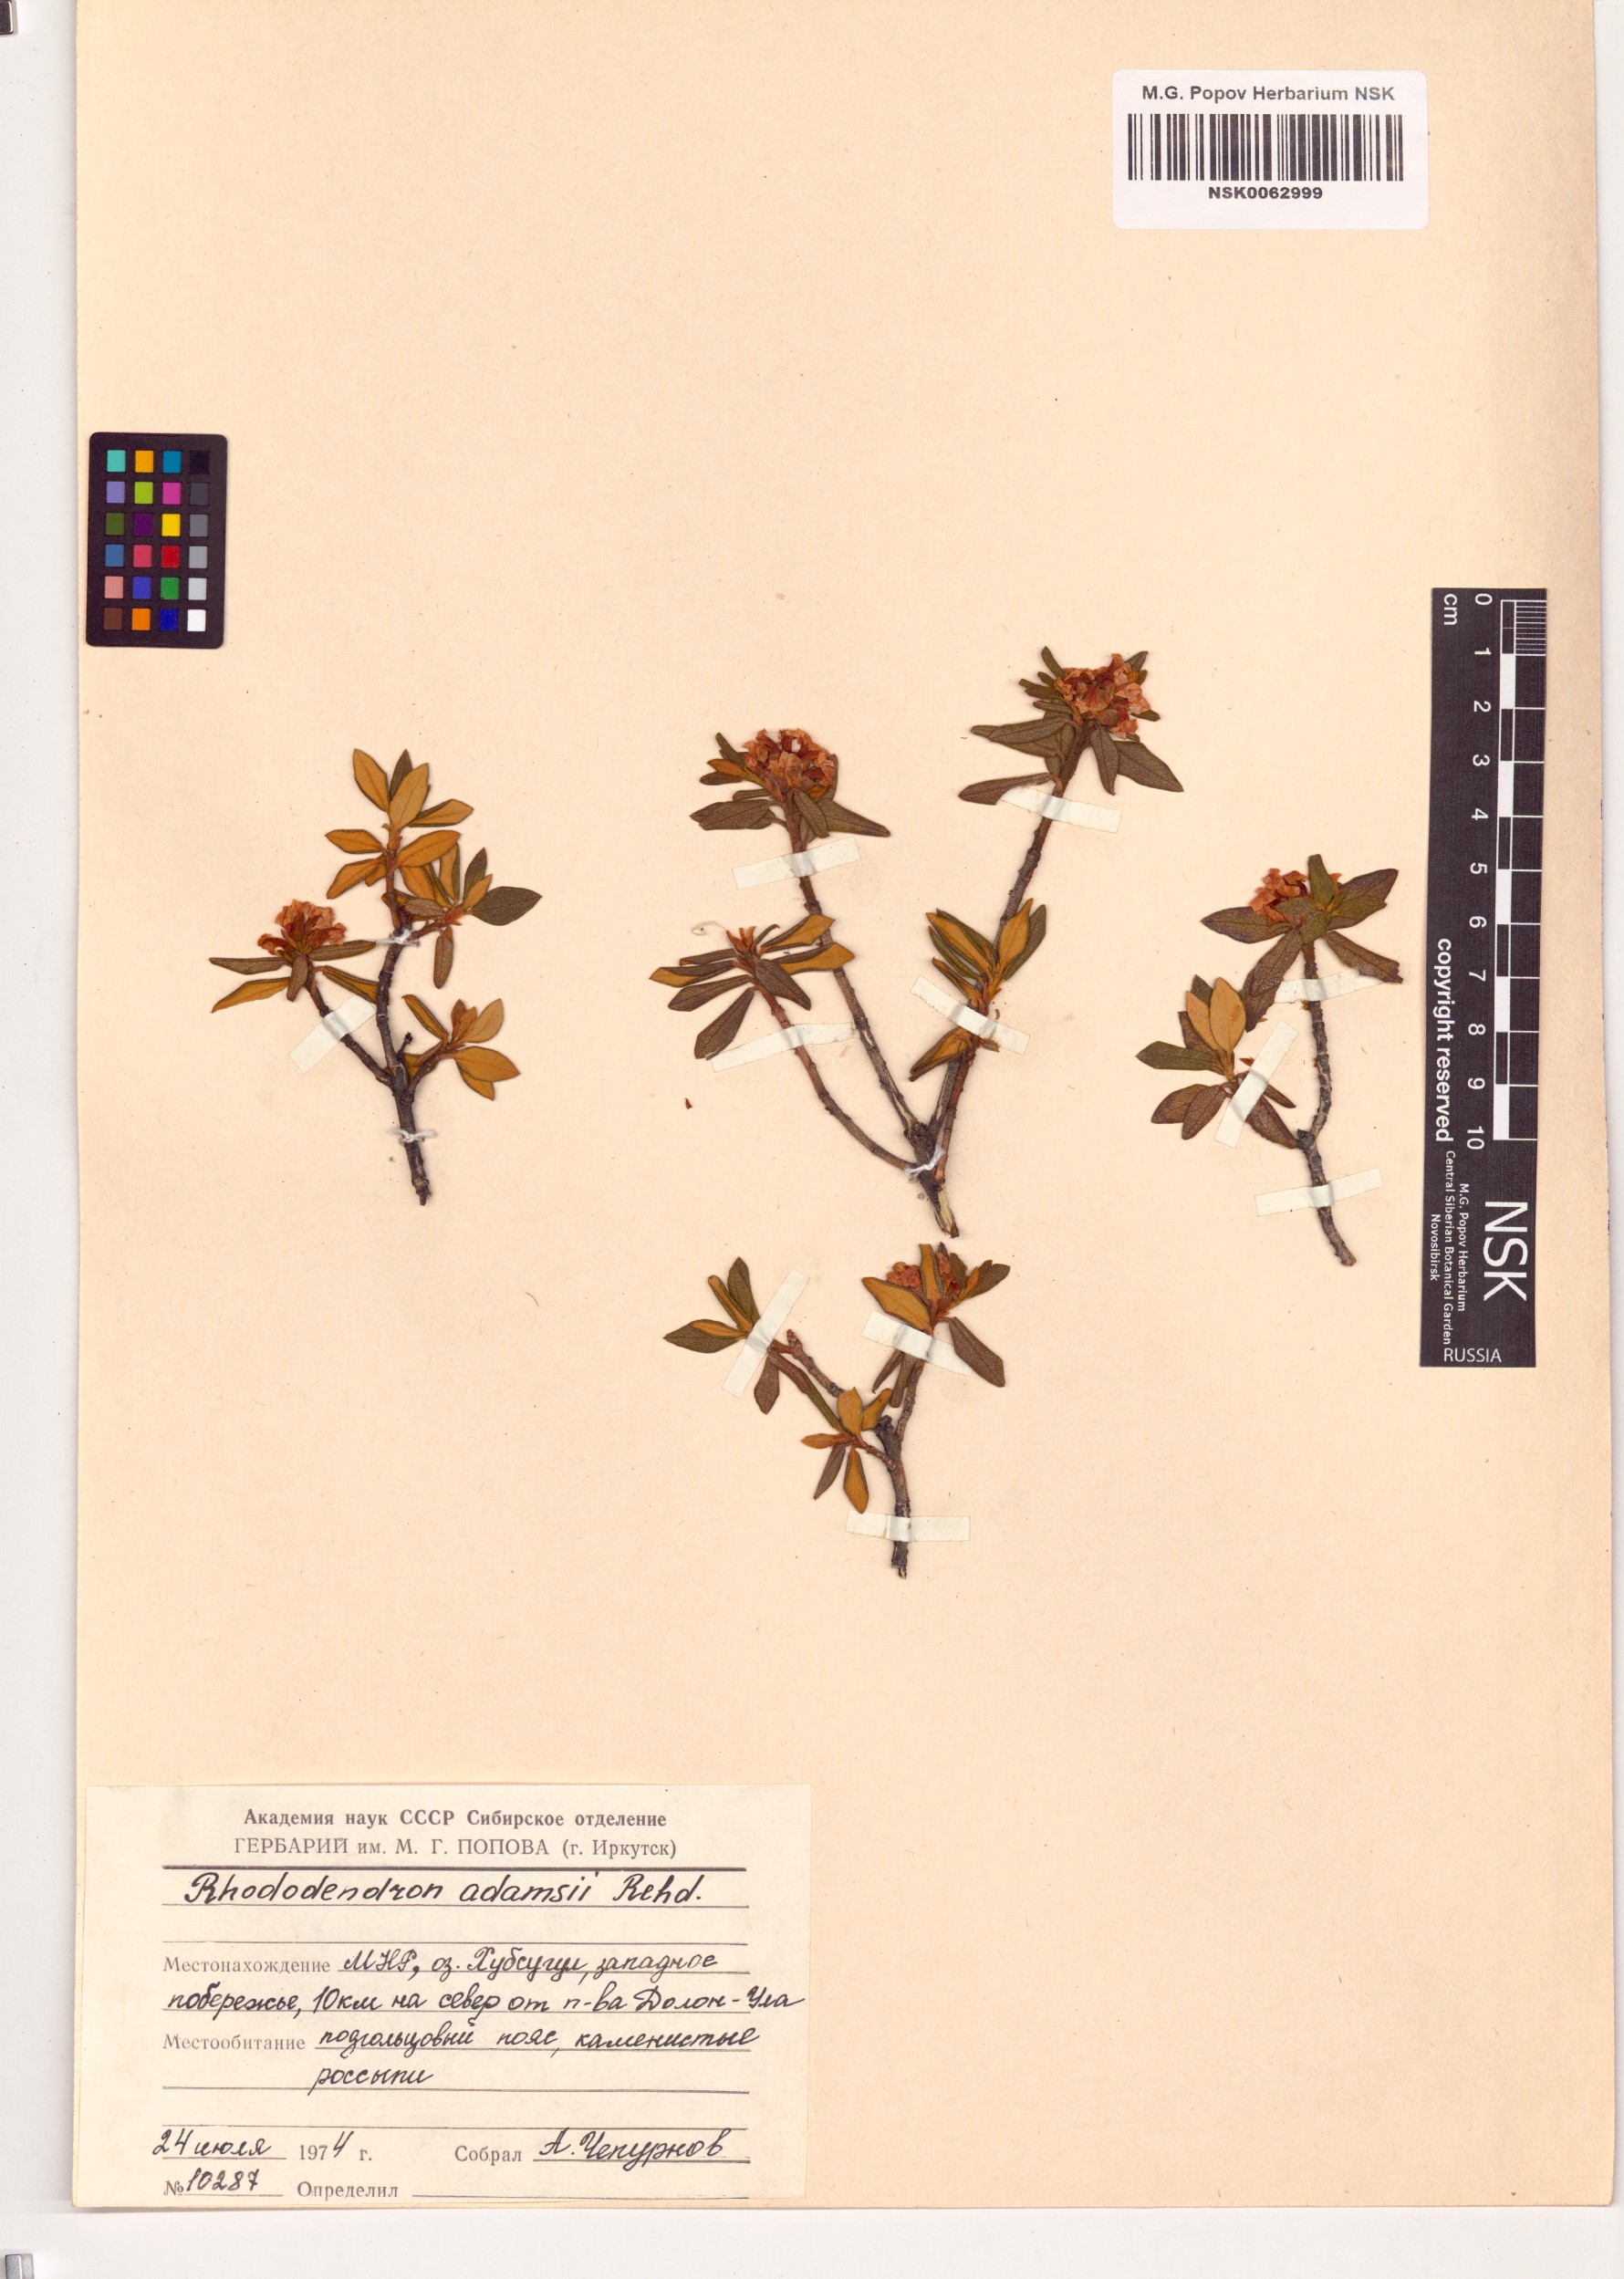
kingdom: Plantae
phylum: Tracheophyta
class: Magnoliopsida
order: Ericales
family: Ericaceae
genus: Rhododendron
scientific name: Rhododendron adamsii
